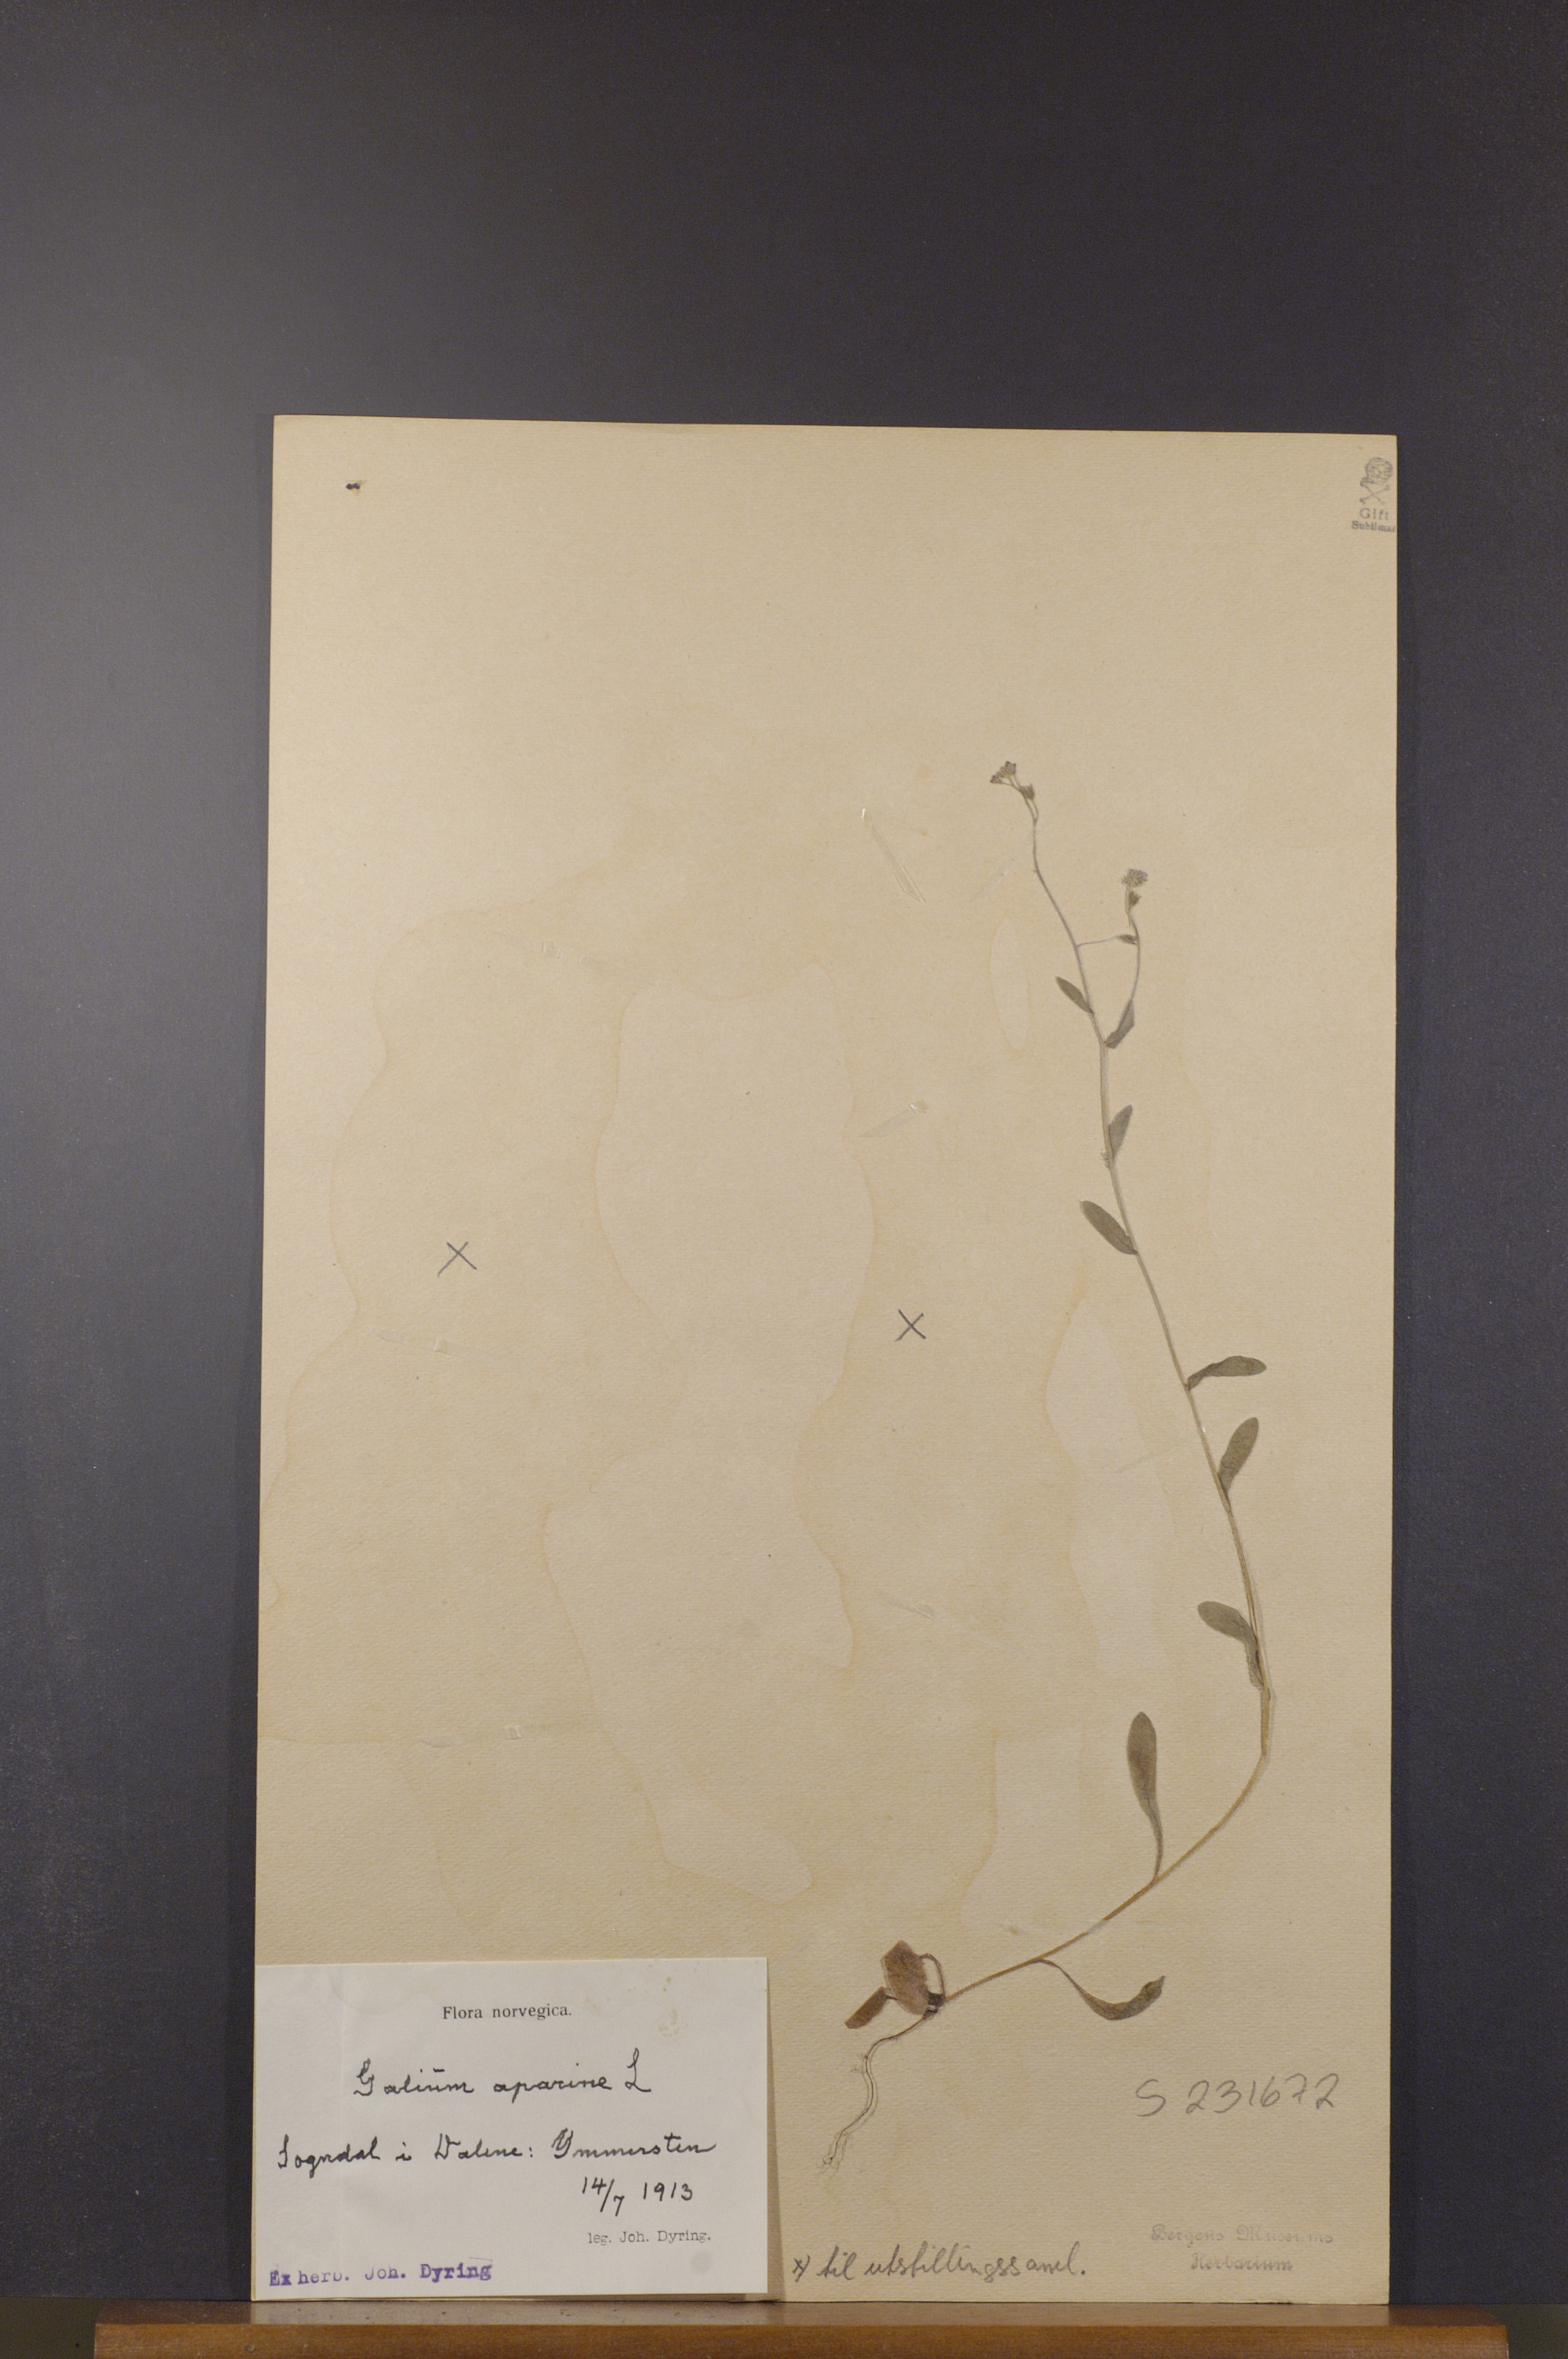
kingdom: Plantae
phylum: Tracheophyta
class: Magnoliopsida
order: Gentianales
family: Rubiaceae
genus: Galium
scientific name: Galium aparine
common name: Cleavers
